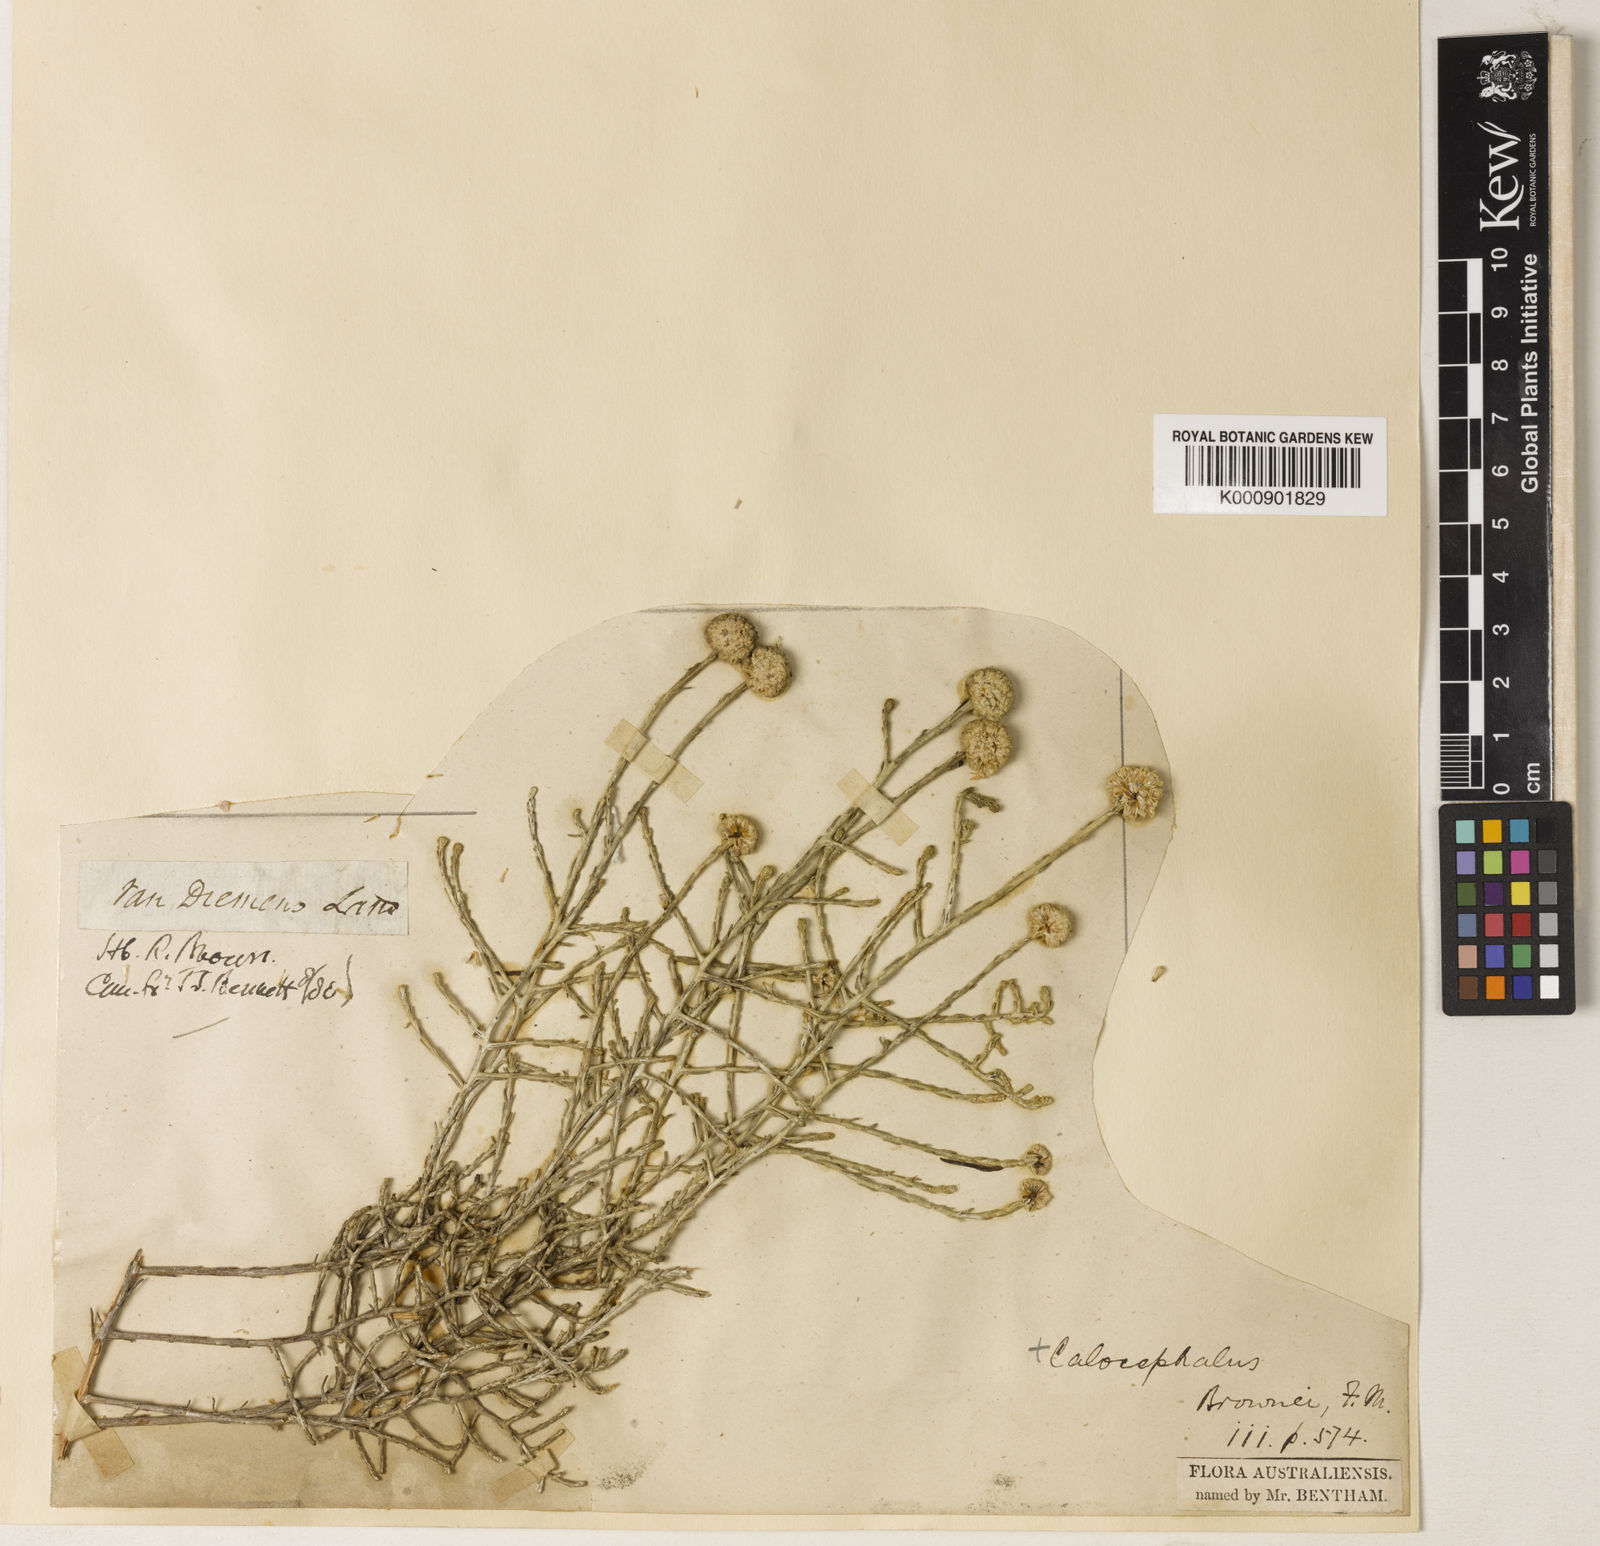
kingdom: Plantae
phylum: Tracheophyta
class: Magnoliopsida
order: Asterales
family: Asteraceae
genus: Calocephalus
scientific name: Calocephalus brownii
